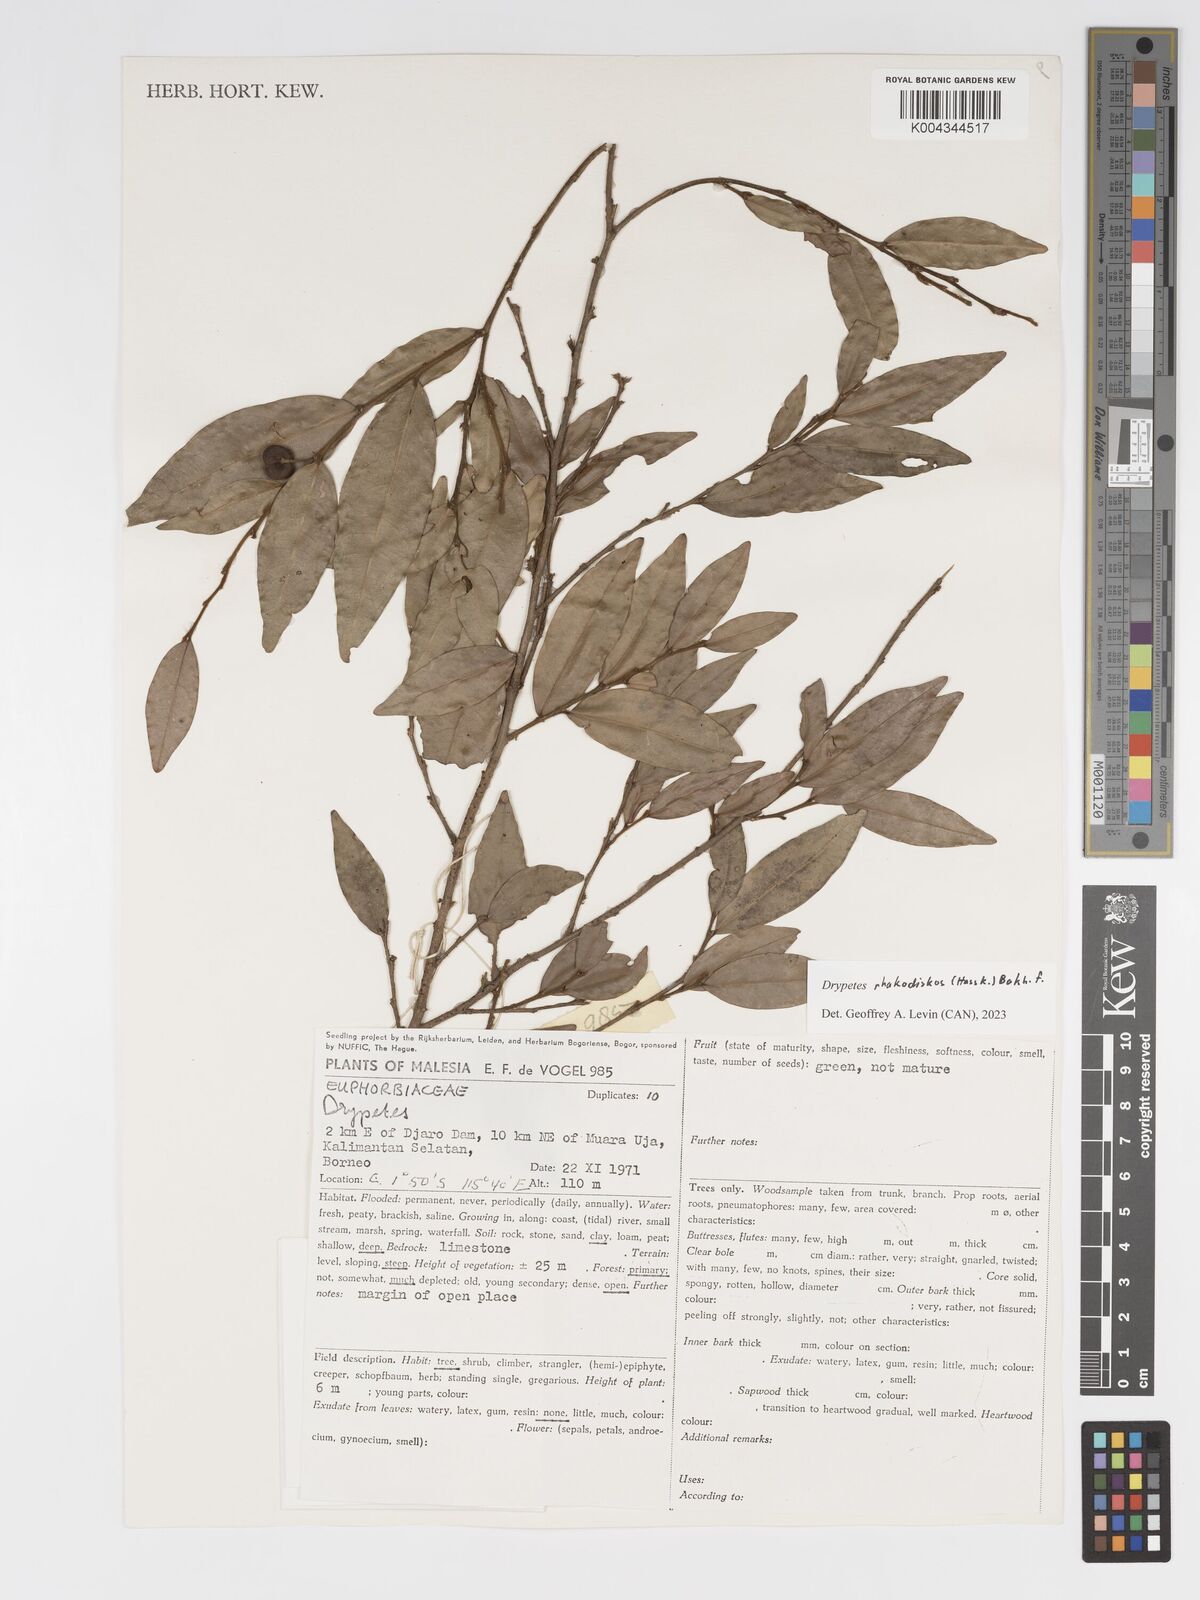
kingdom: Plantae
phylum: Tracheophyta
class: Magnoliopsida
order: Malpighiales
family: Putranjivaceae
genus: Drypetes
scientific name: Drypetes rhakodiskos
